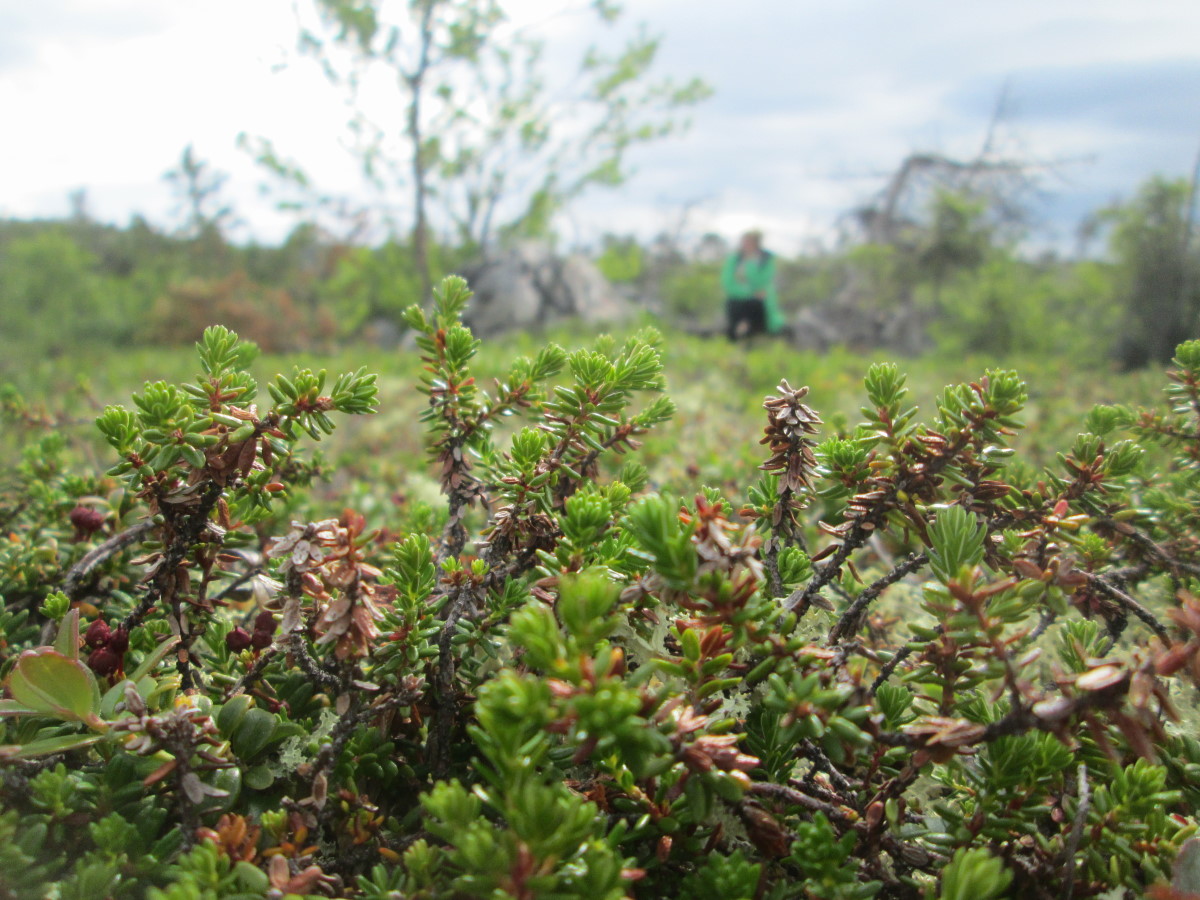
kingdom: Plantae
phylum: Tracheophyta
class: Magnoliopsida
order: Ericales
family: Ericaceae
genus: Kalmia
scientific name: Kalmia procumbens
